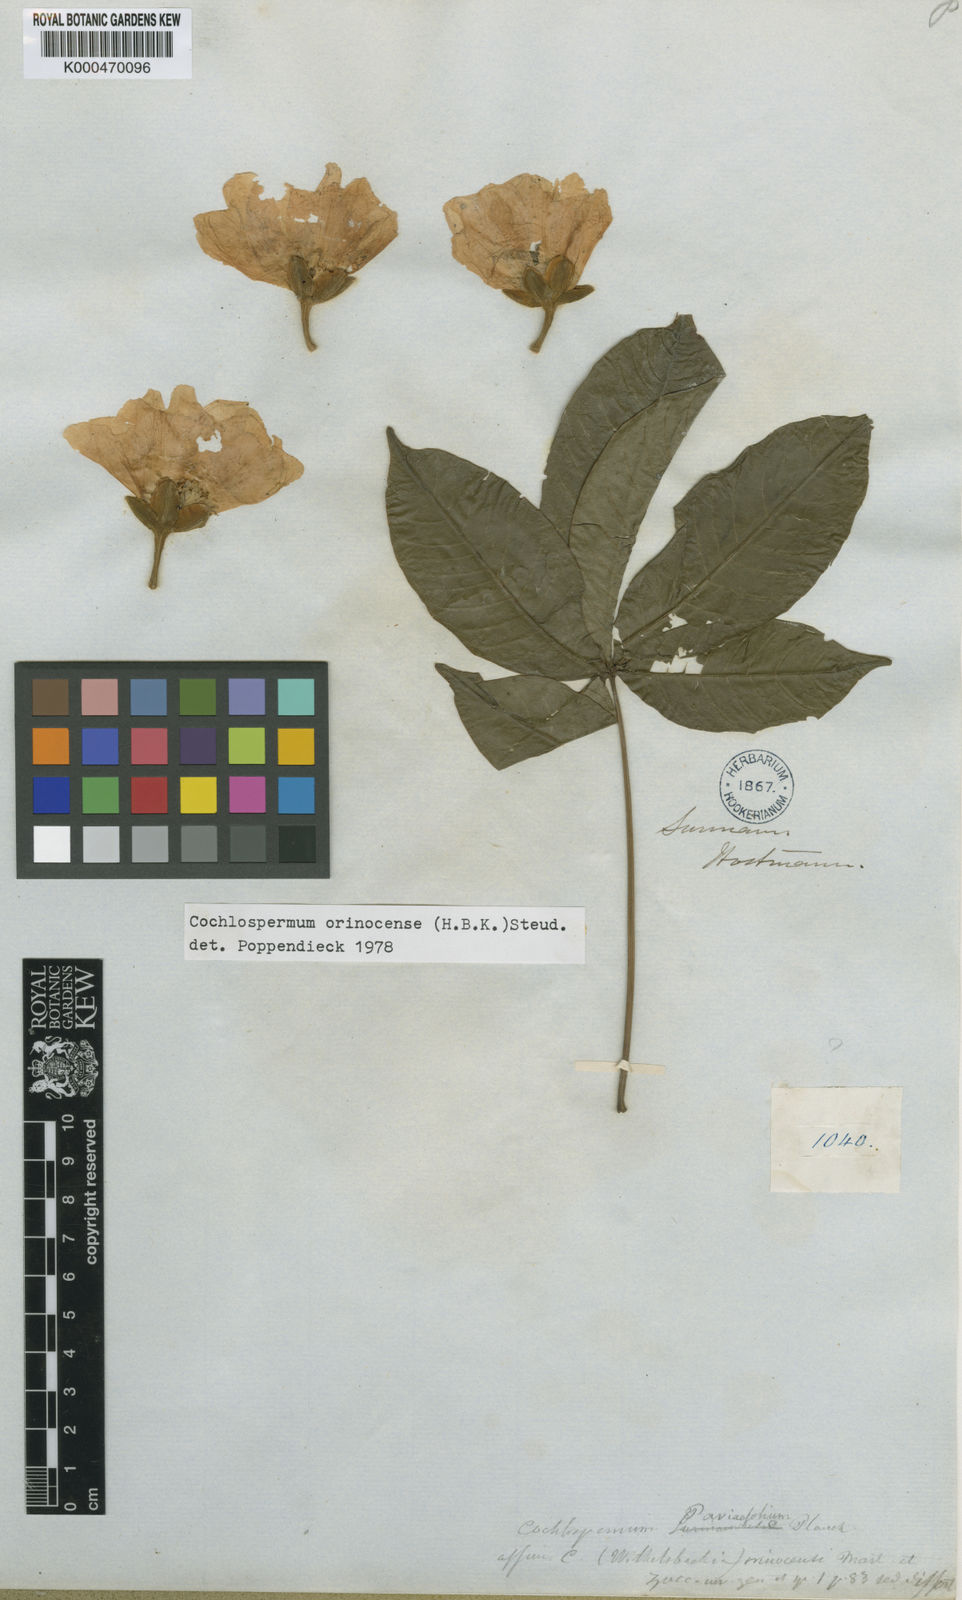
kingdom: Plantae
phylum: Tracheophyta
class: Magnoliopsida
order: Malvales
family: Cochlospermaceae
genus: Cochlospermum
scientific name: Cochlospermum orinocense
